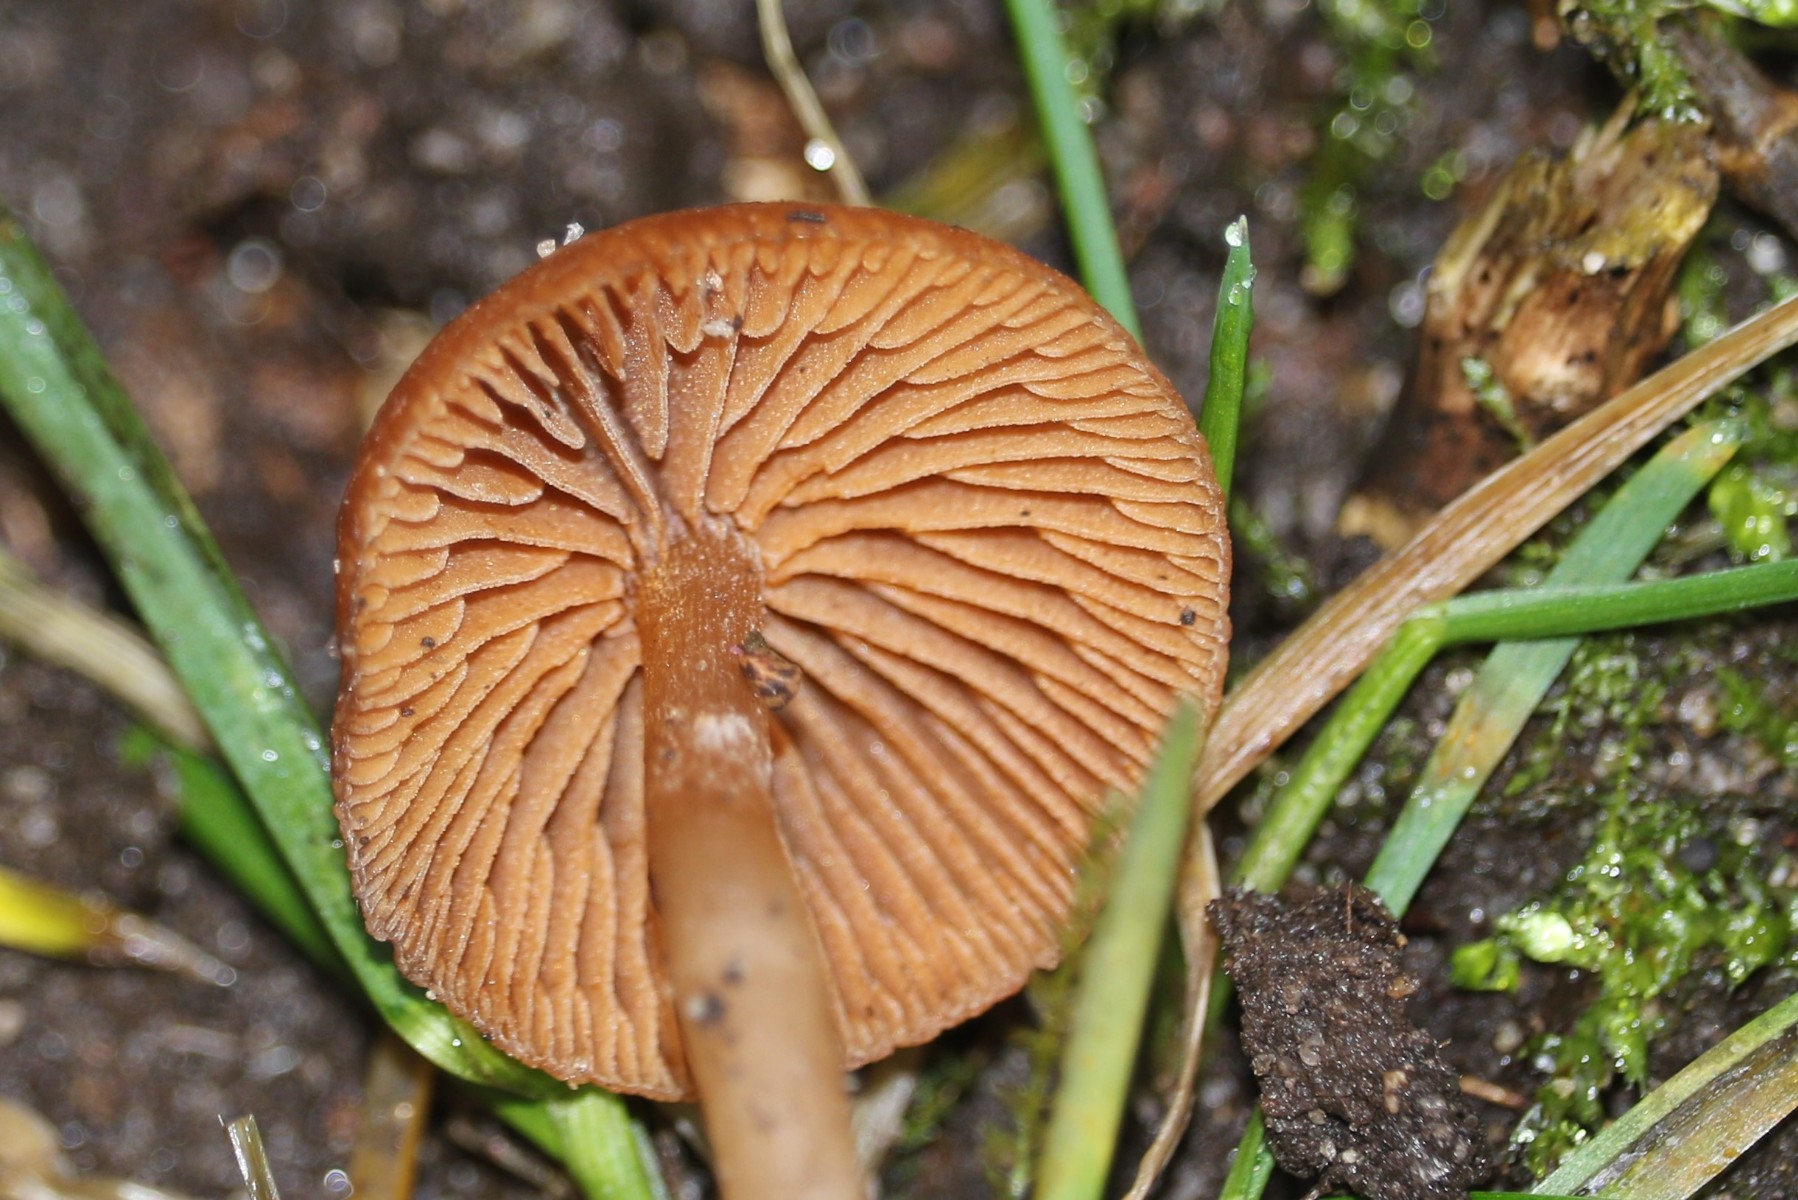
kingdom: Fungi
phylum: Basidiomycota
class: Agaricomycetes
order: Agaricales
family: Tubariaceae
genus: Tubaria
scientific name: Tubaria
